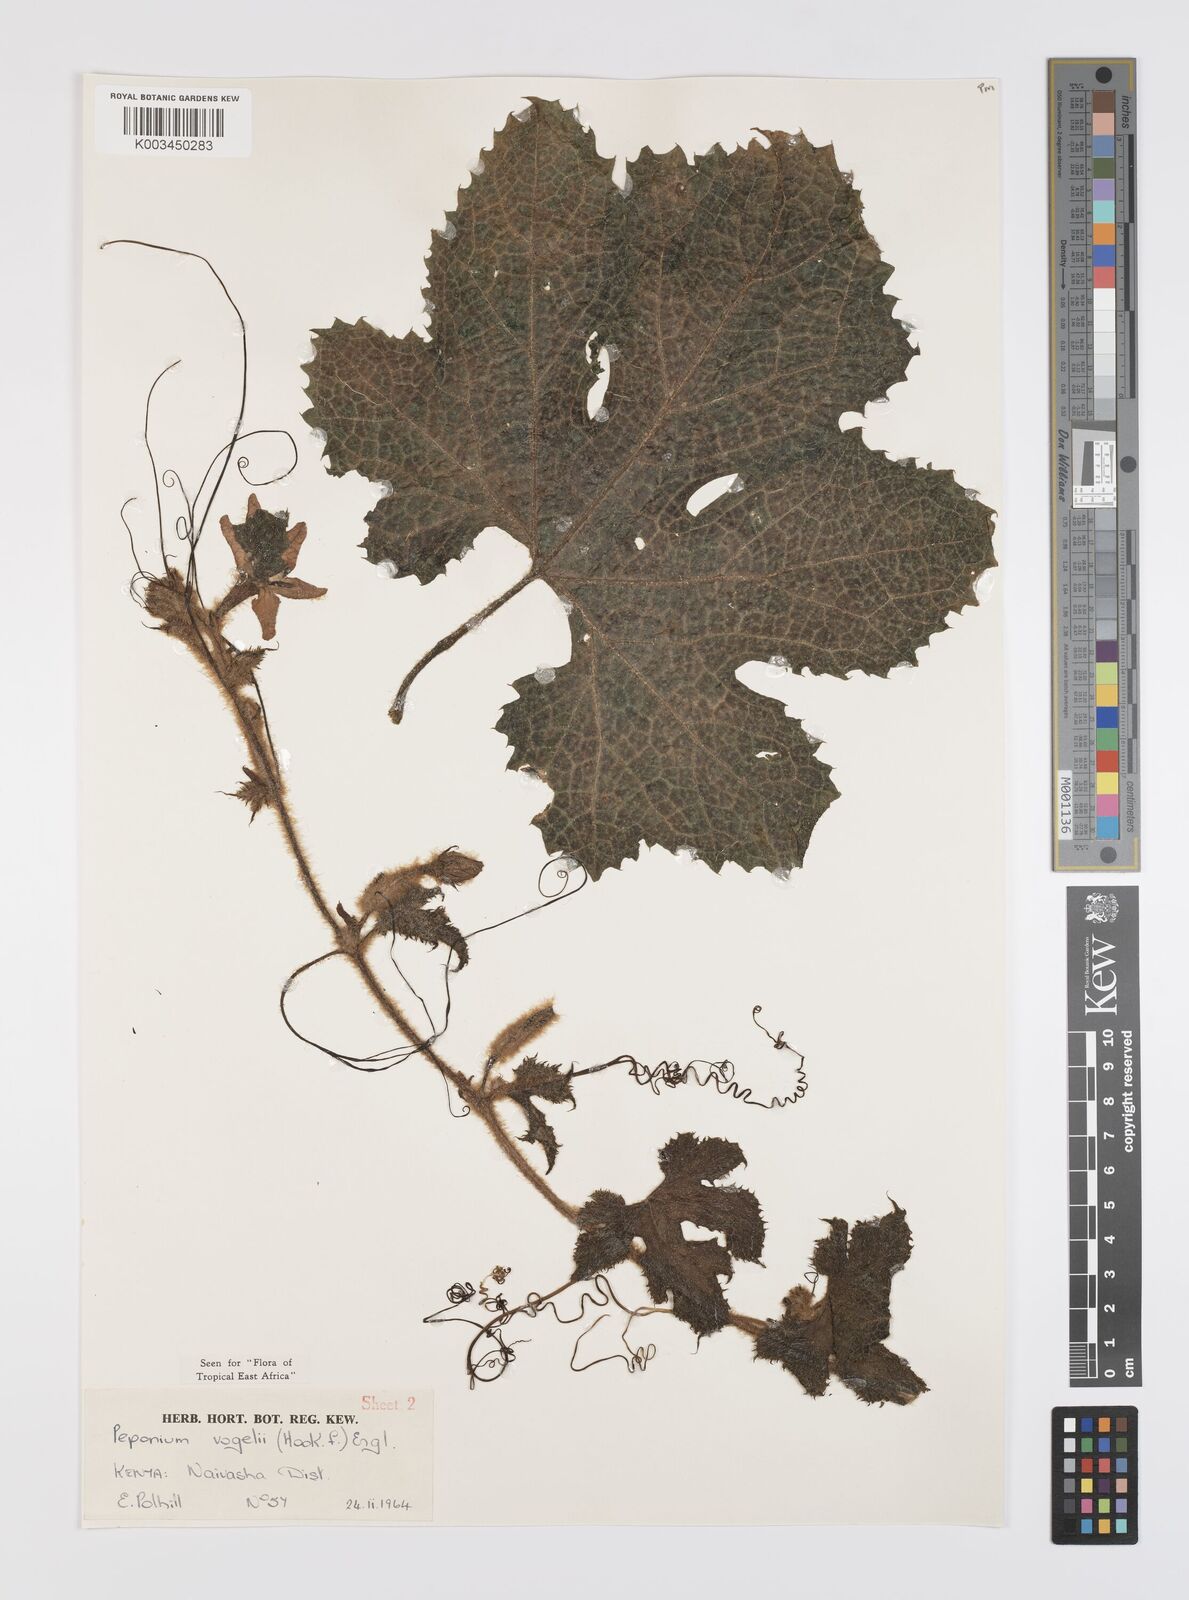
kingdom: Plantae
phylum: Tracheophyta
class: Magnoliopsida
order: Cucurbitales
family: Cucurbitaceae
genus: Peponium
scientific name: Peponium vogelii
